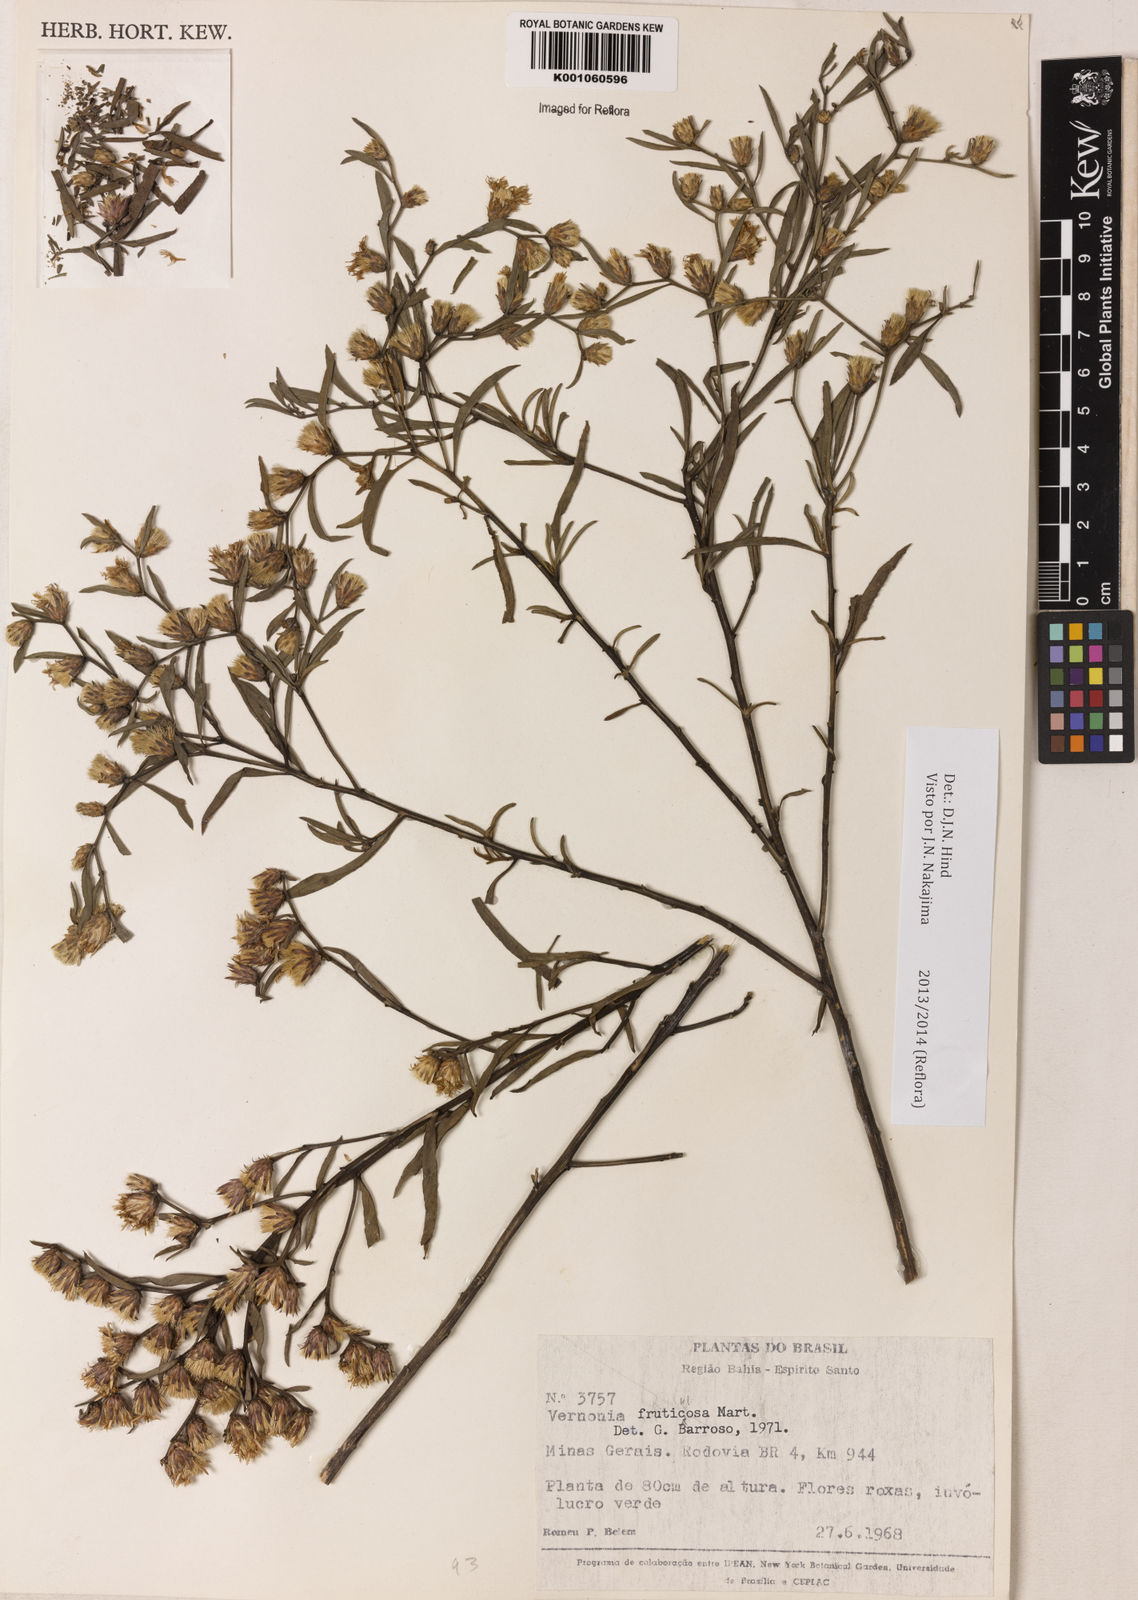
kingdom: Plantae
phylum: Tracheophyta
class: Magnoliopsida
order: Asterales
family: Asteraceae
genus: Lepidaploa
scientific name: Lepidaploa rufogrisea
